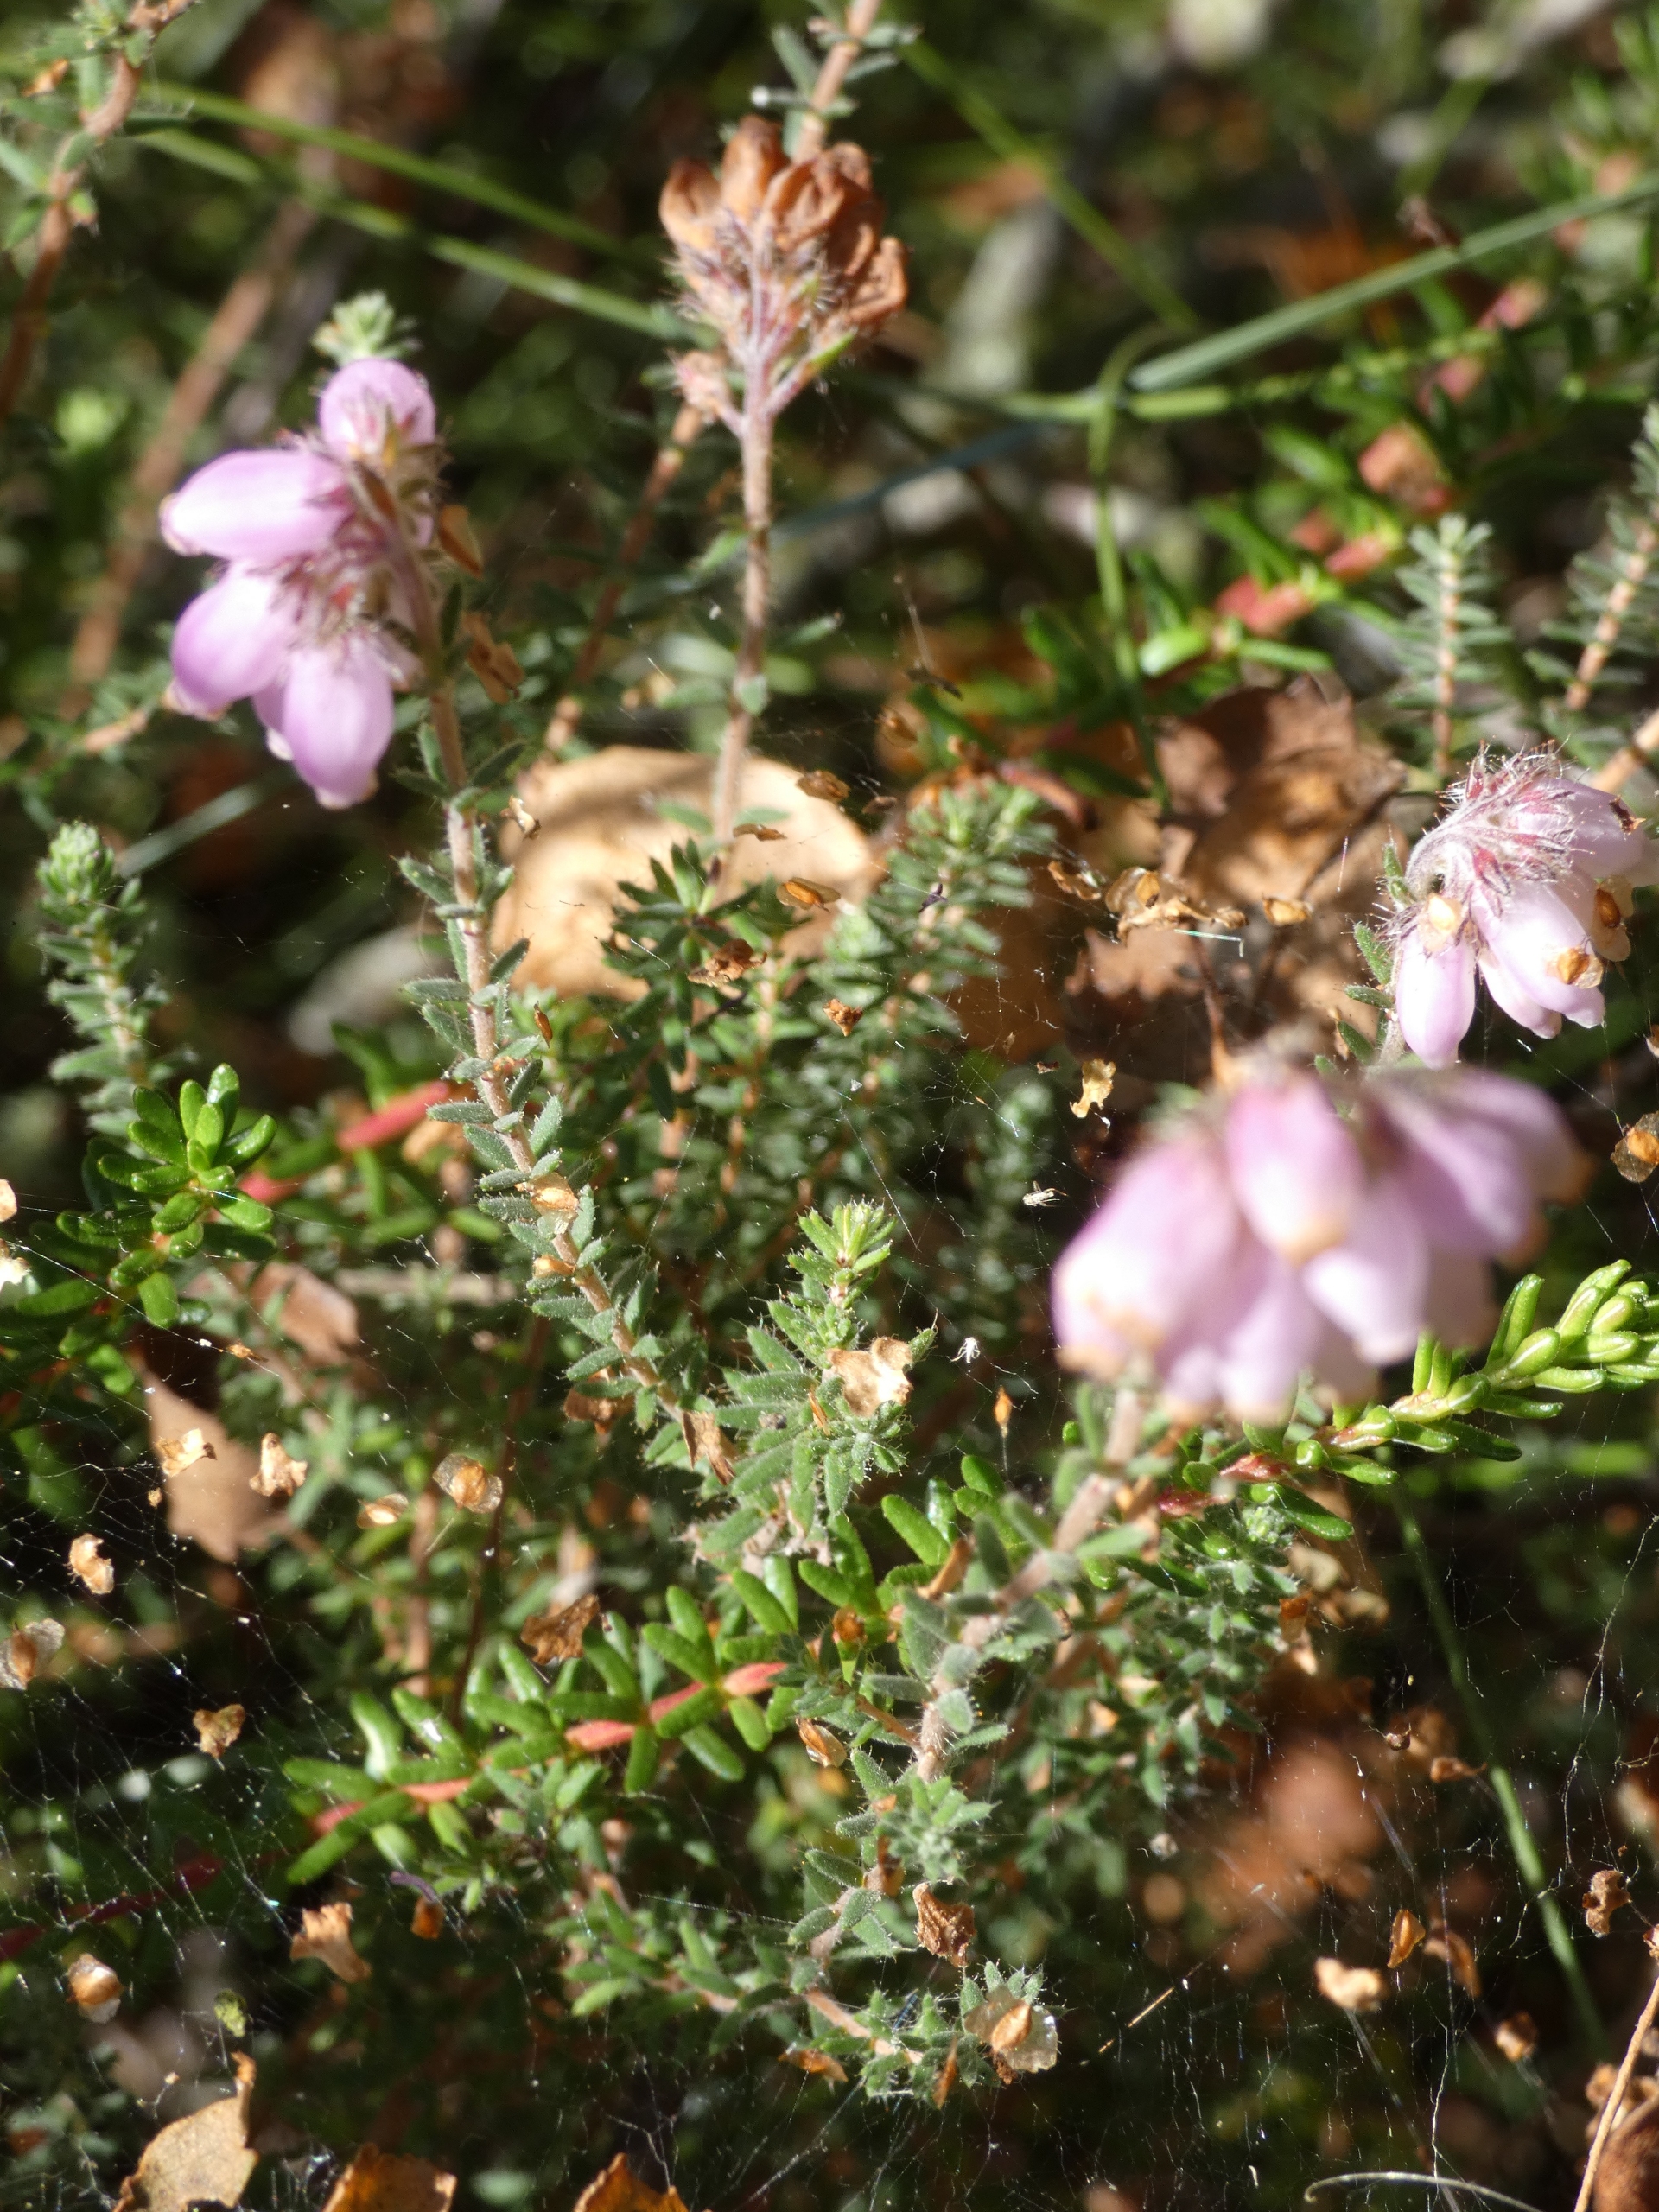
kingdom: Plantae
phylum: Tracheophyta
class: Magnoliopsida
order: Ericales
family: Ericaceae
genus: Erica
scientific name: Erica tetralix
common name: Klokkelyng
